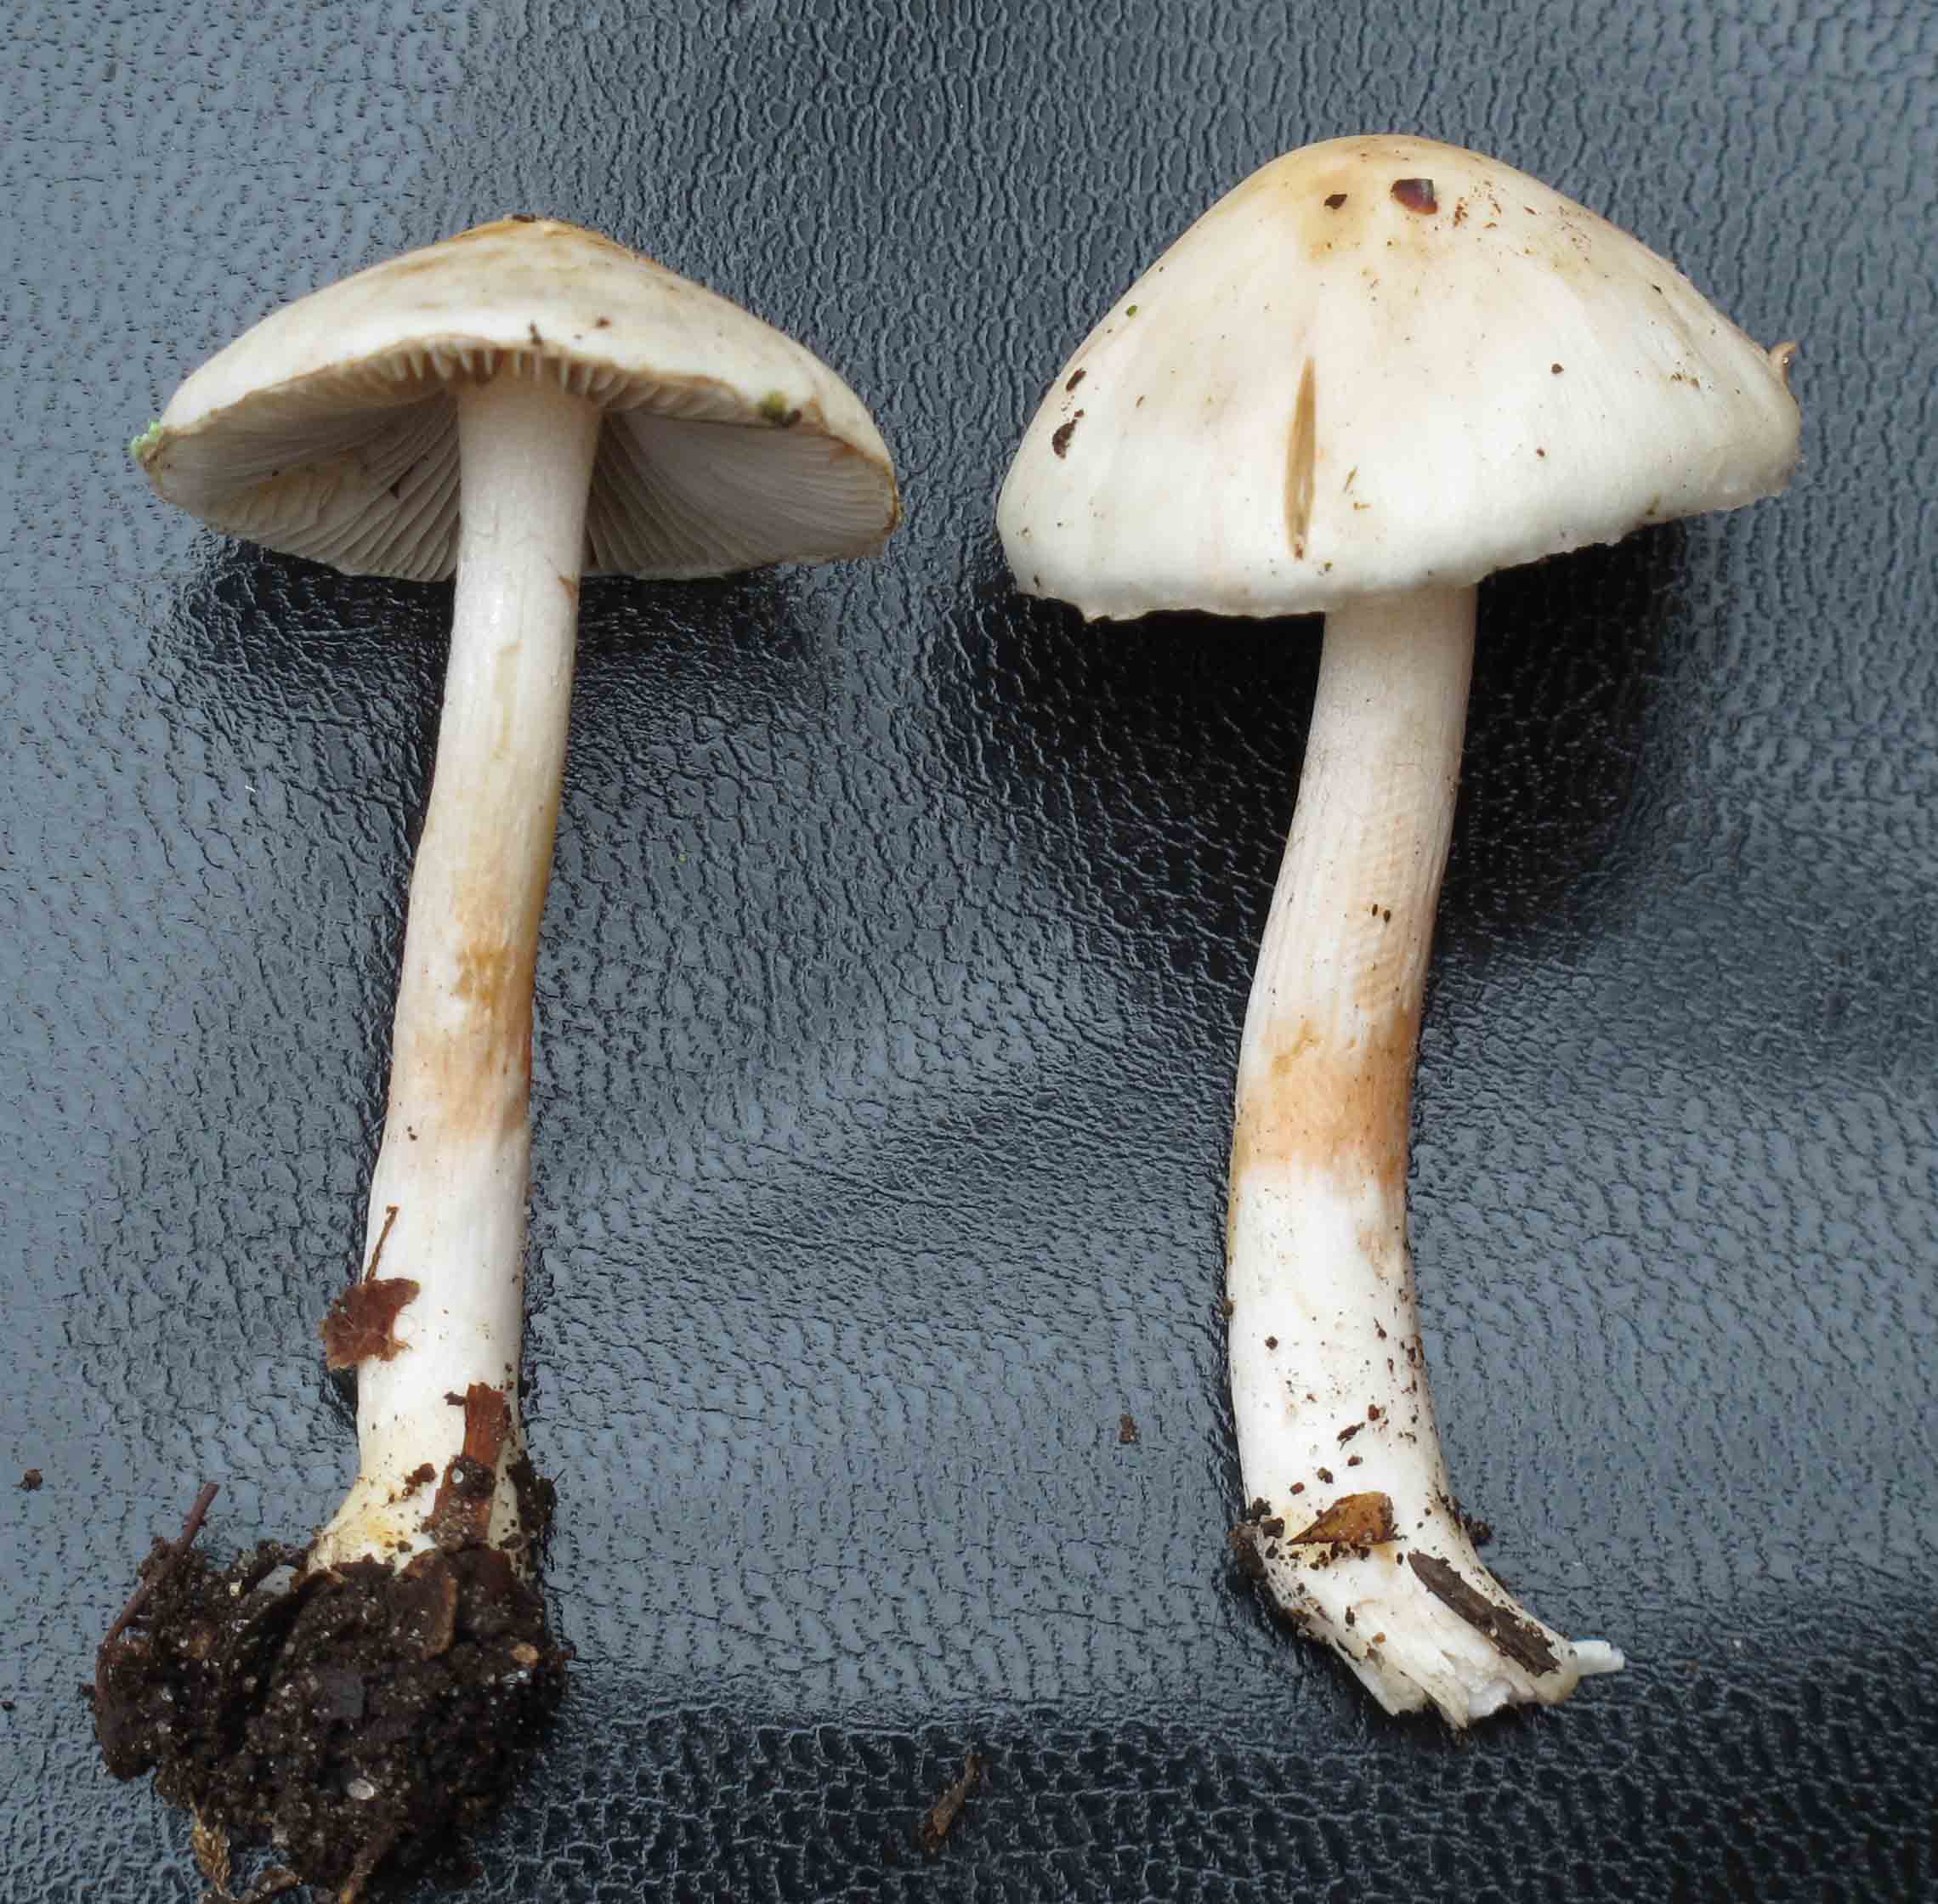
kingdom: Fungi
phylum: Basidiomycota
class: Agaricomycetes
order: Agaricales
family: Inocybaceae
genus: Inocybe
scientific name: Inocybe
